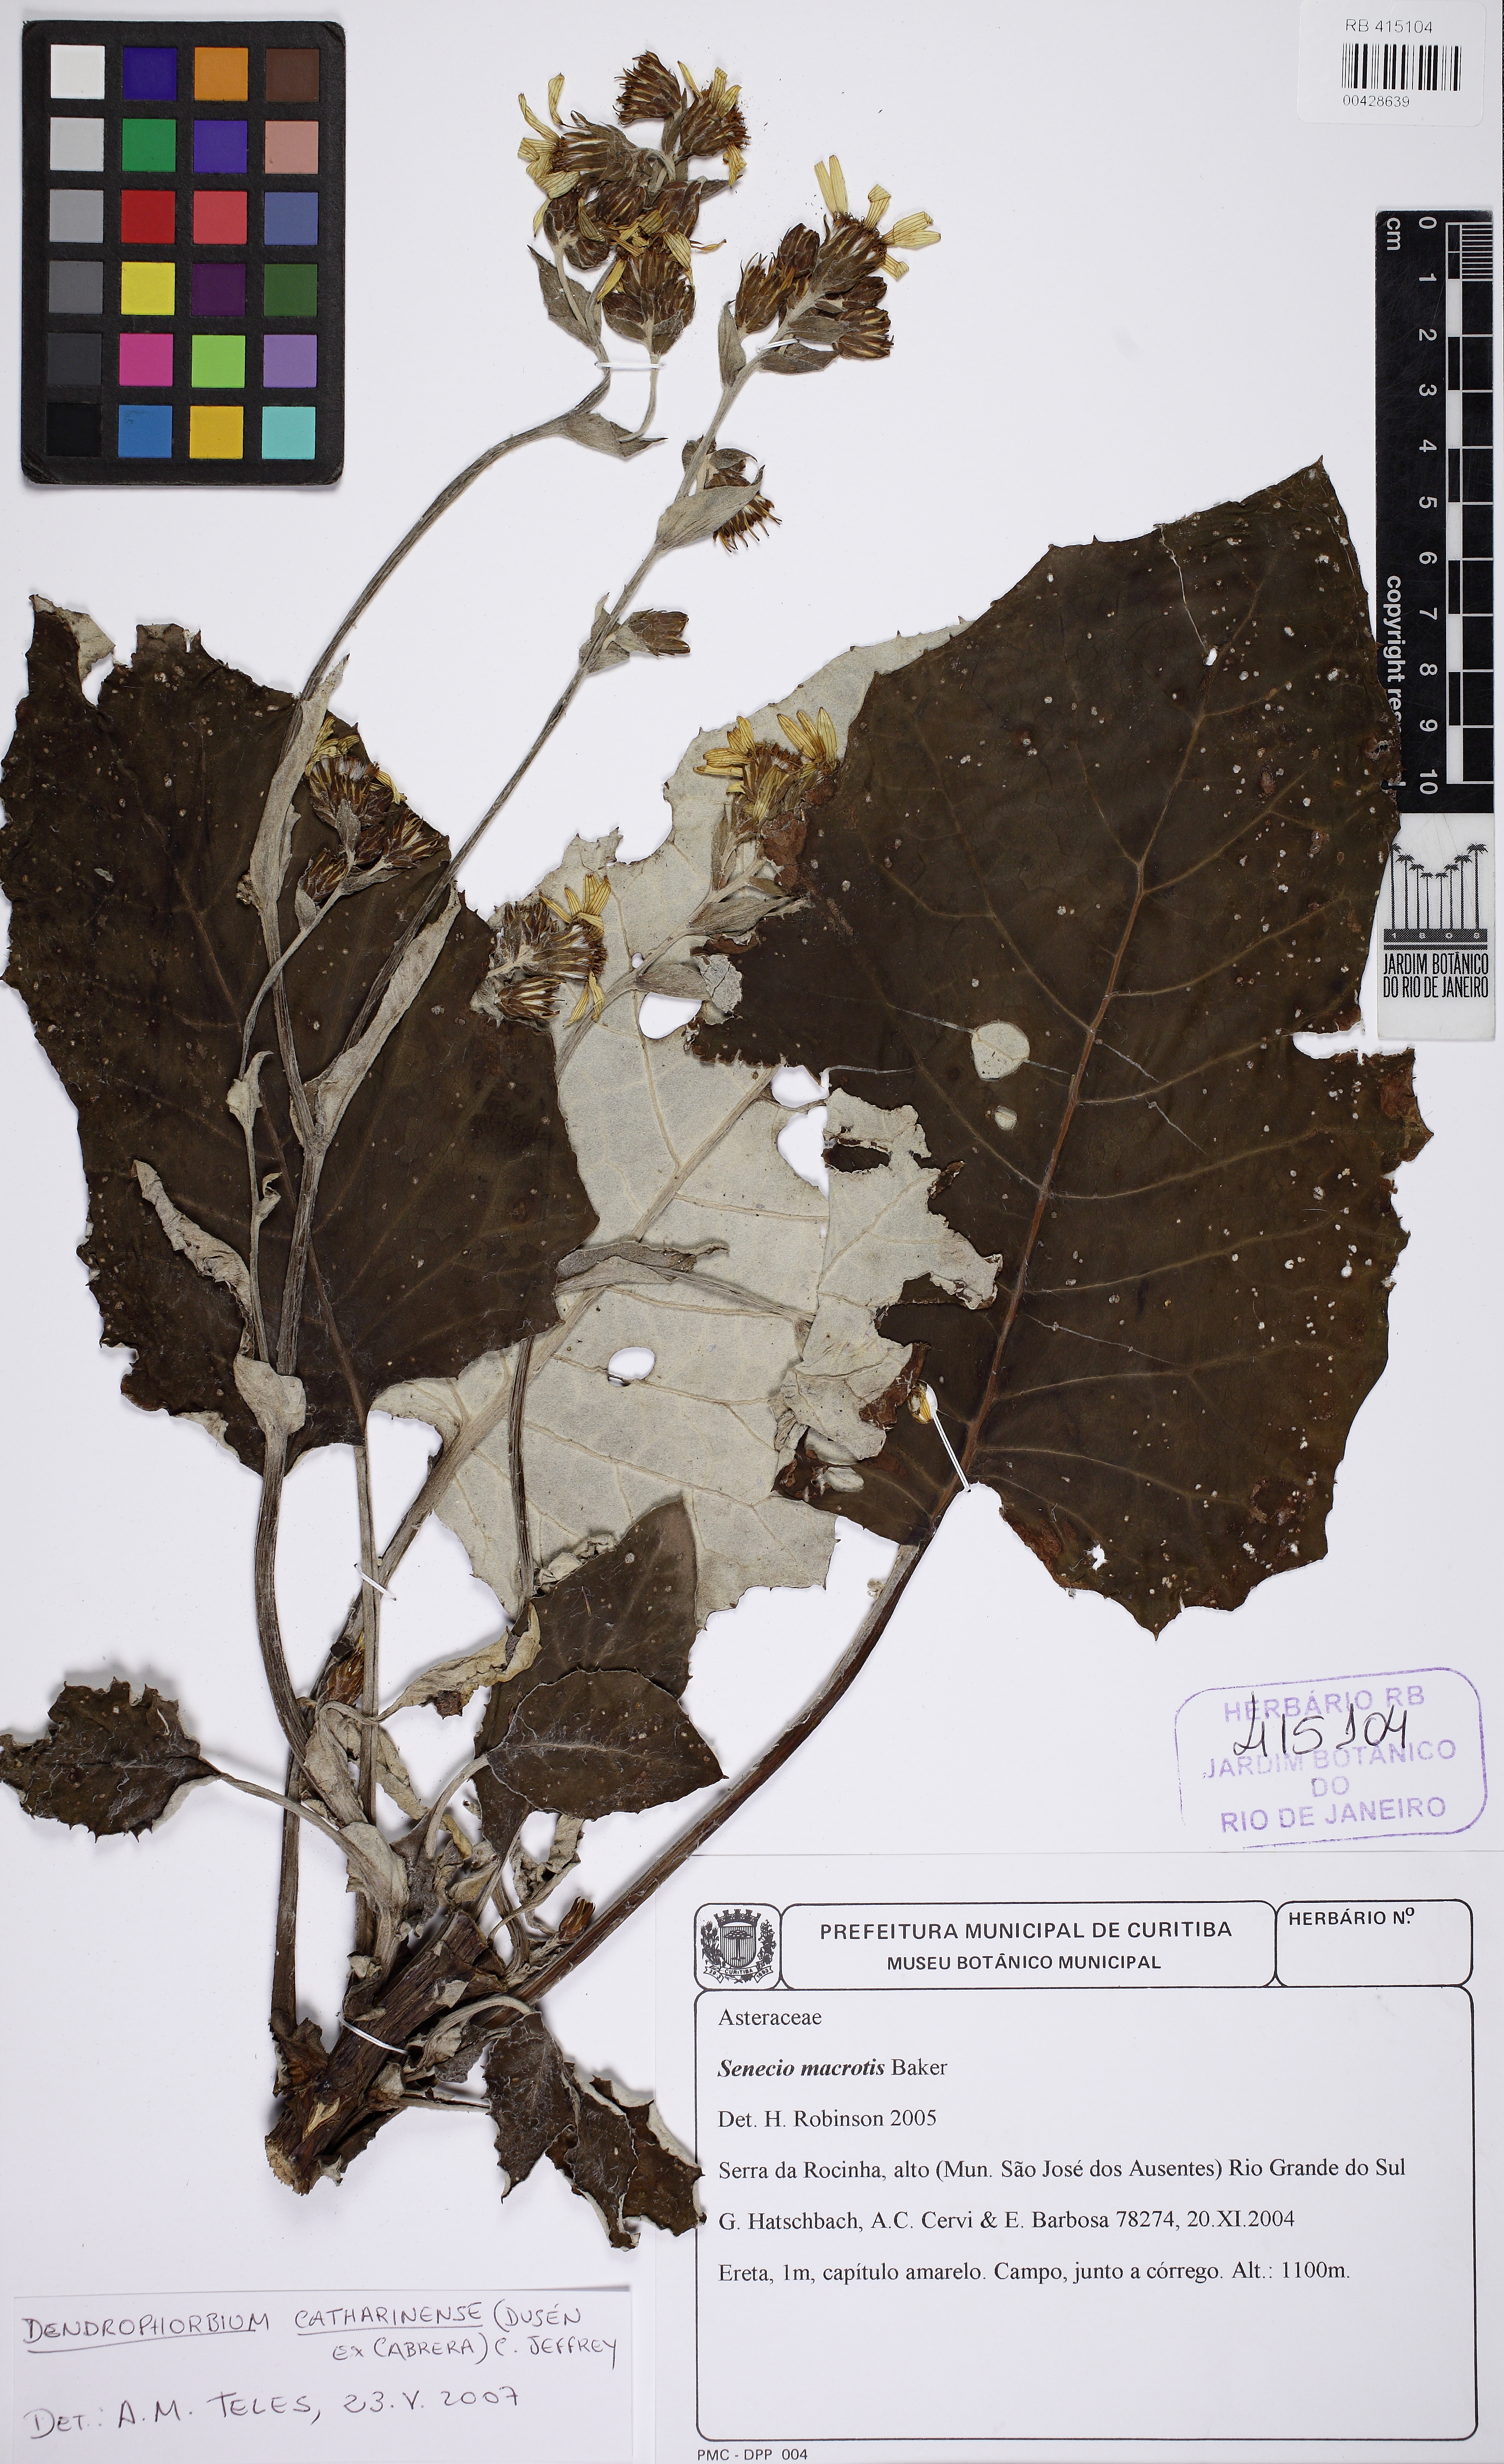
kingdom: Plantae
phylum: Tracheophyta
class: Magnoliopsida
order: Asterales
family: Asteraceae
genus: Dendrophorbium
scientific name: Dendrophorbium catharinense
